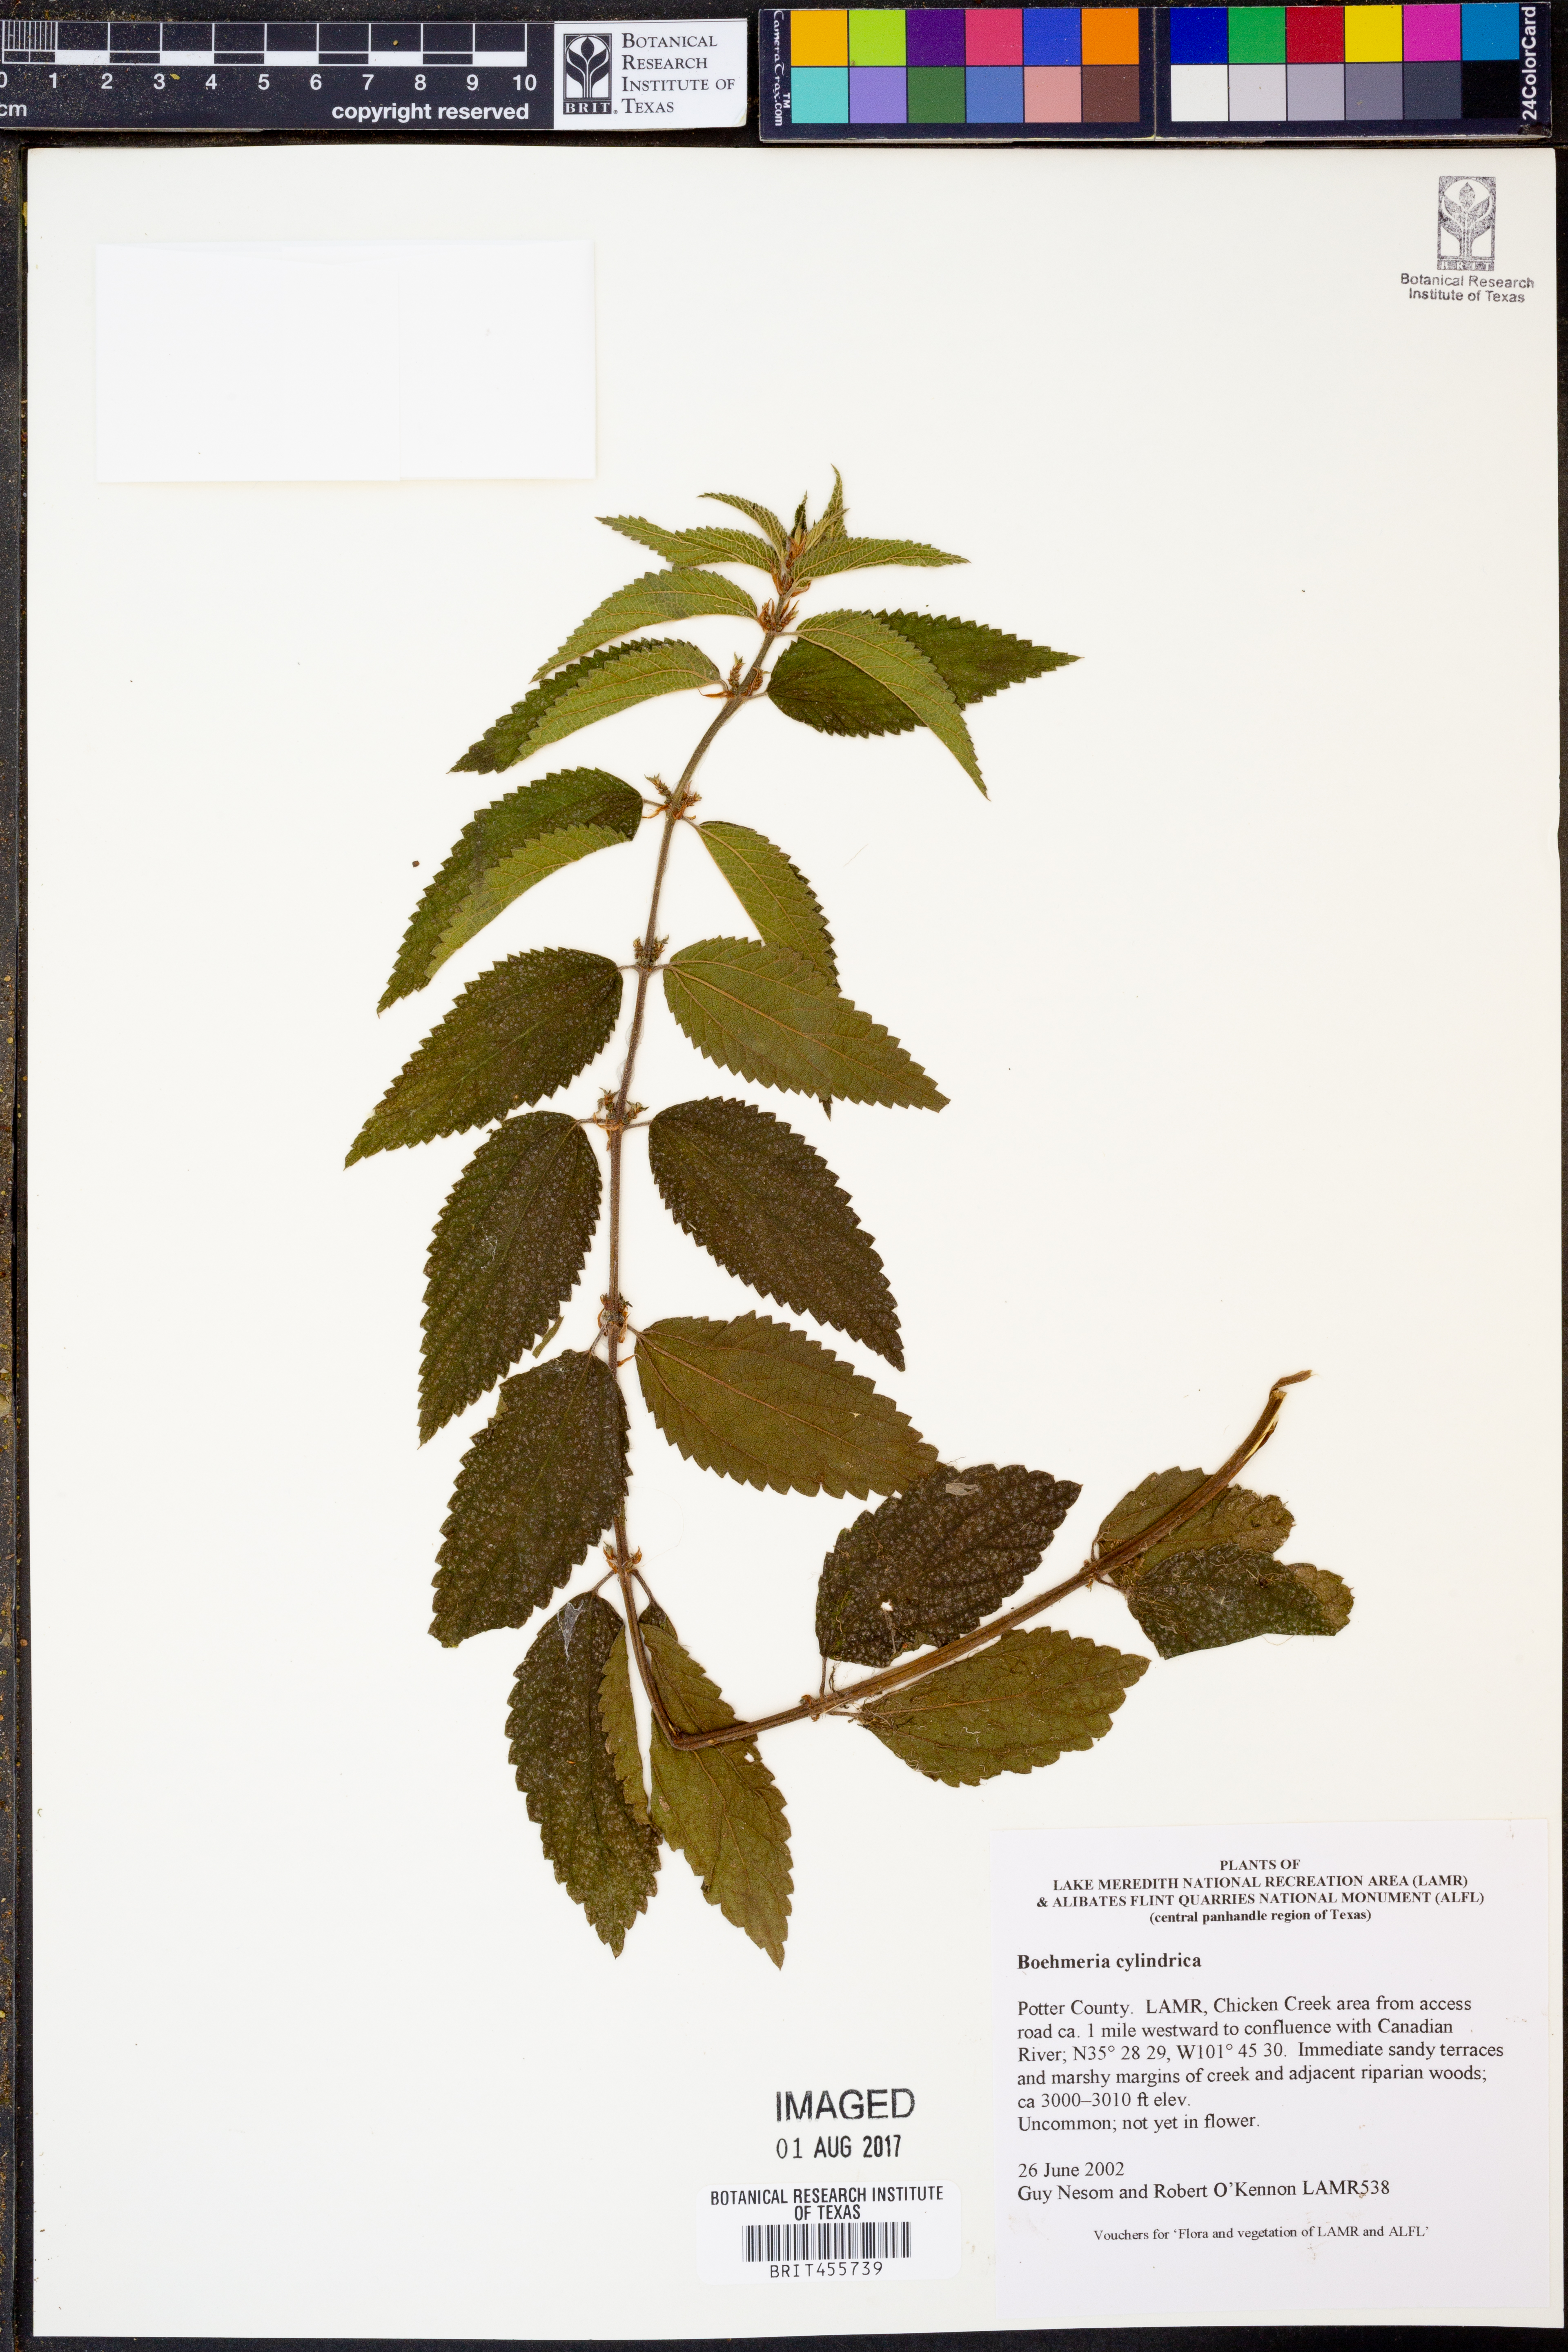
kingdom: Plantae
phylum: Tracheophyta
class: Magnoliopsida
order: Rosales
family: Urticaceae
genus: Boehmeria
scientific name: Boehmeria cylindrica
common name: Bog-hemp
